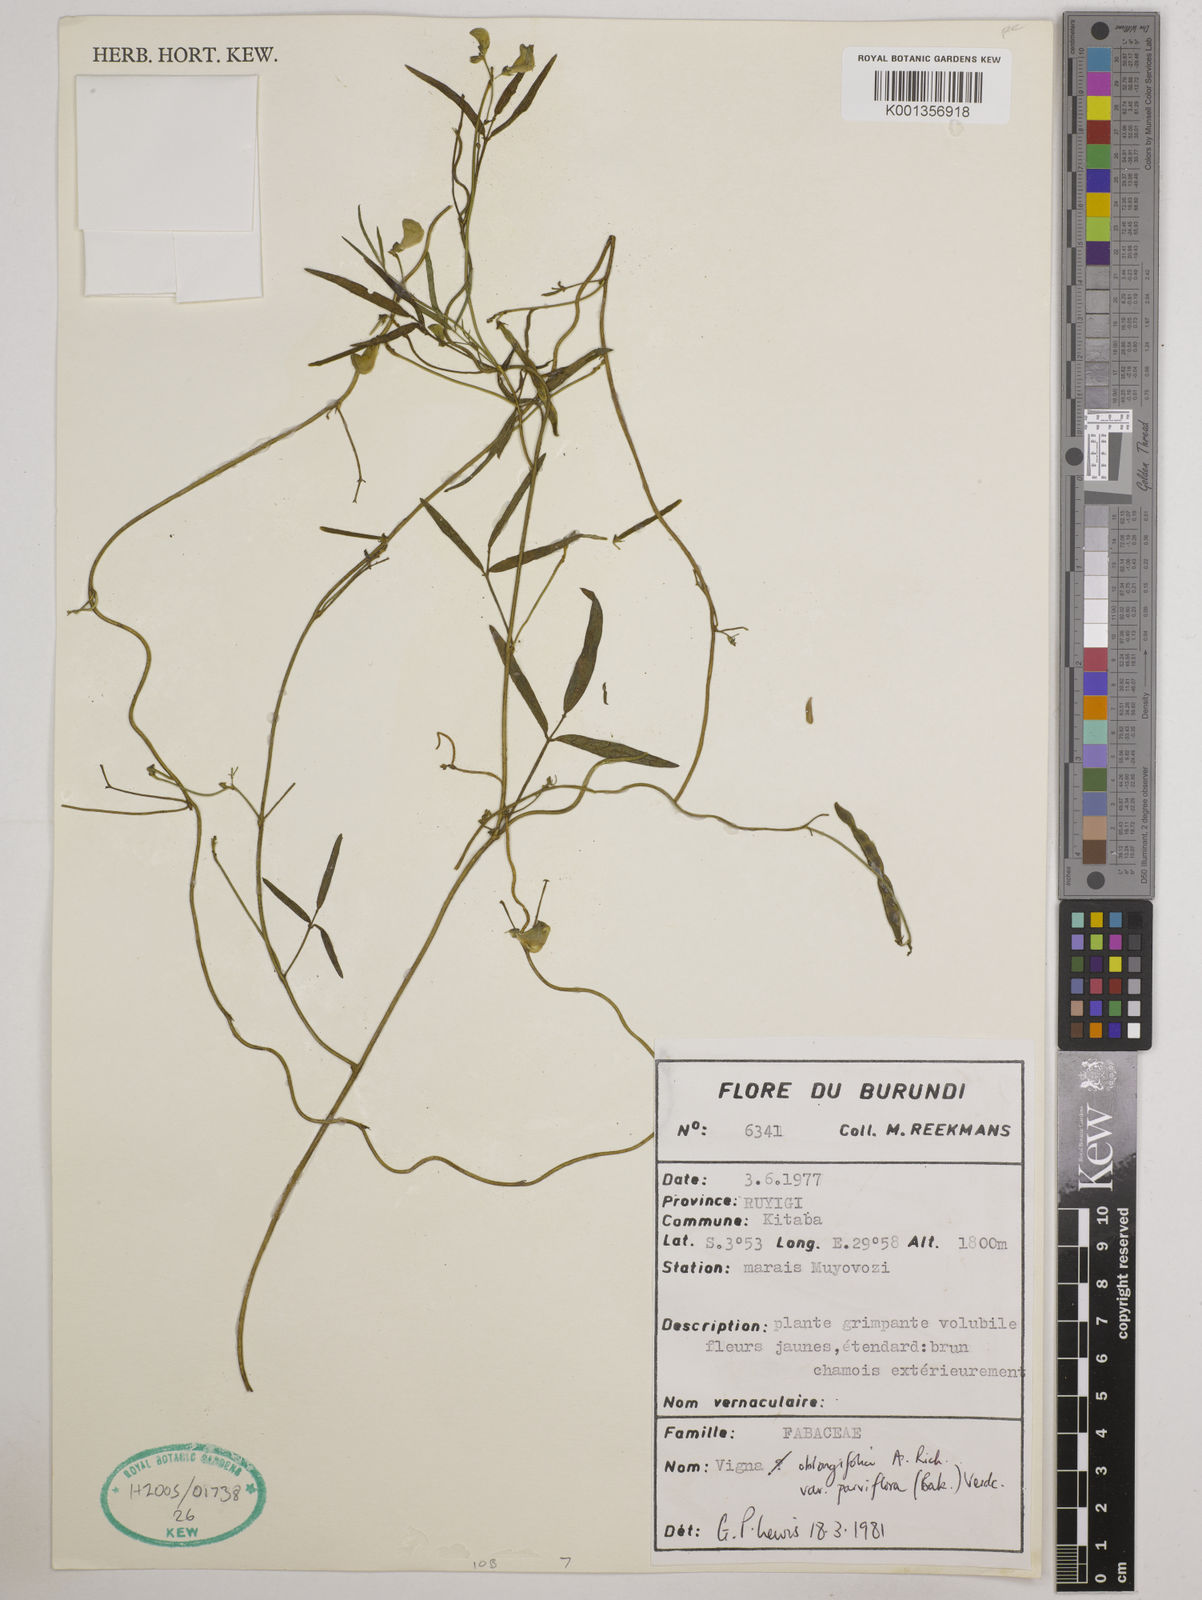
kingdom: Plantae
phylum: Tracheophyta
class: Magnoliopsida
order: Fabales
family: Fabaceae
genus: Vigna
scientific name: Vigna
